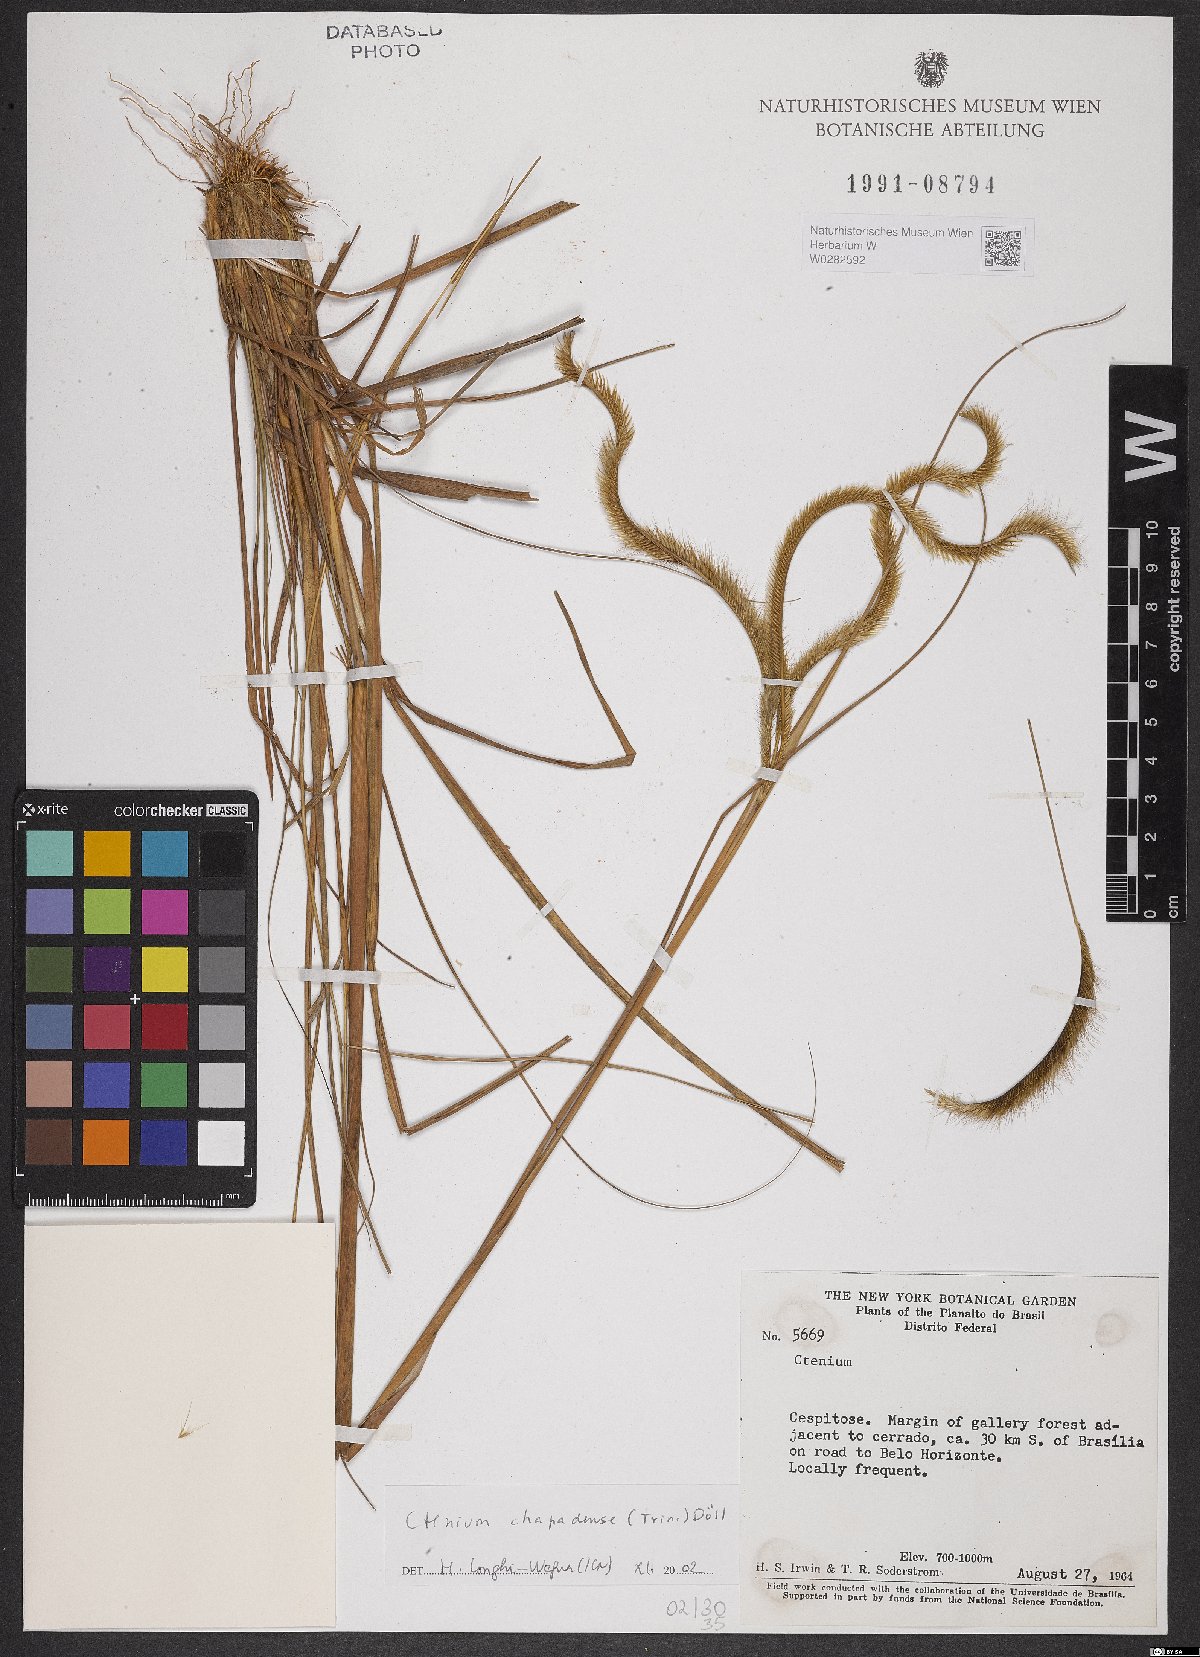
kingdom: Plantae
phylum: Tracheophyta
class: Liliopsida
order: Poales
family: Poaceae
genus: Ctenium
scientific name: Ctenium chapadense
